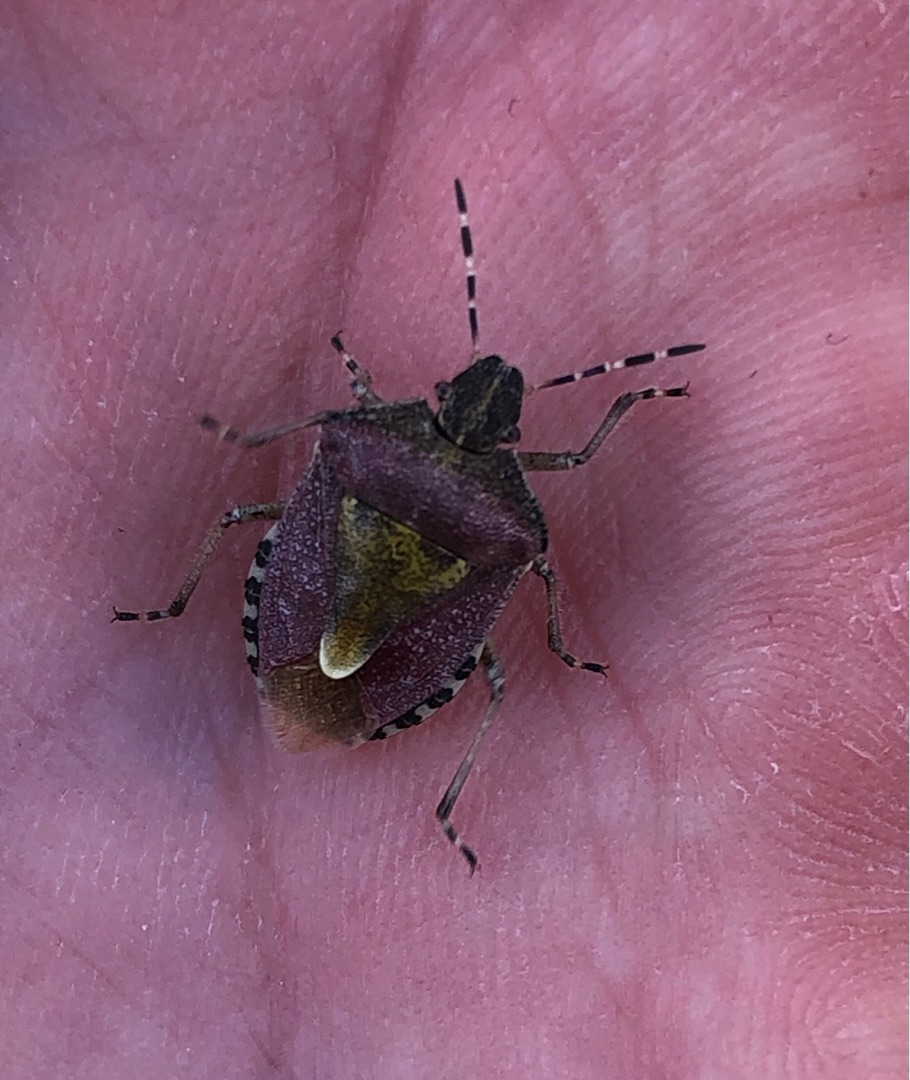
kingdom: Animalia
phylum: Arthropoda
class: Insecta
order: Hemiptera
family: Pentatomidae
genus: Dolycoris
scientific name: Dolycoris baccarum
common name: Almindelig bærtæge
